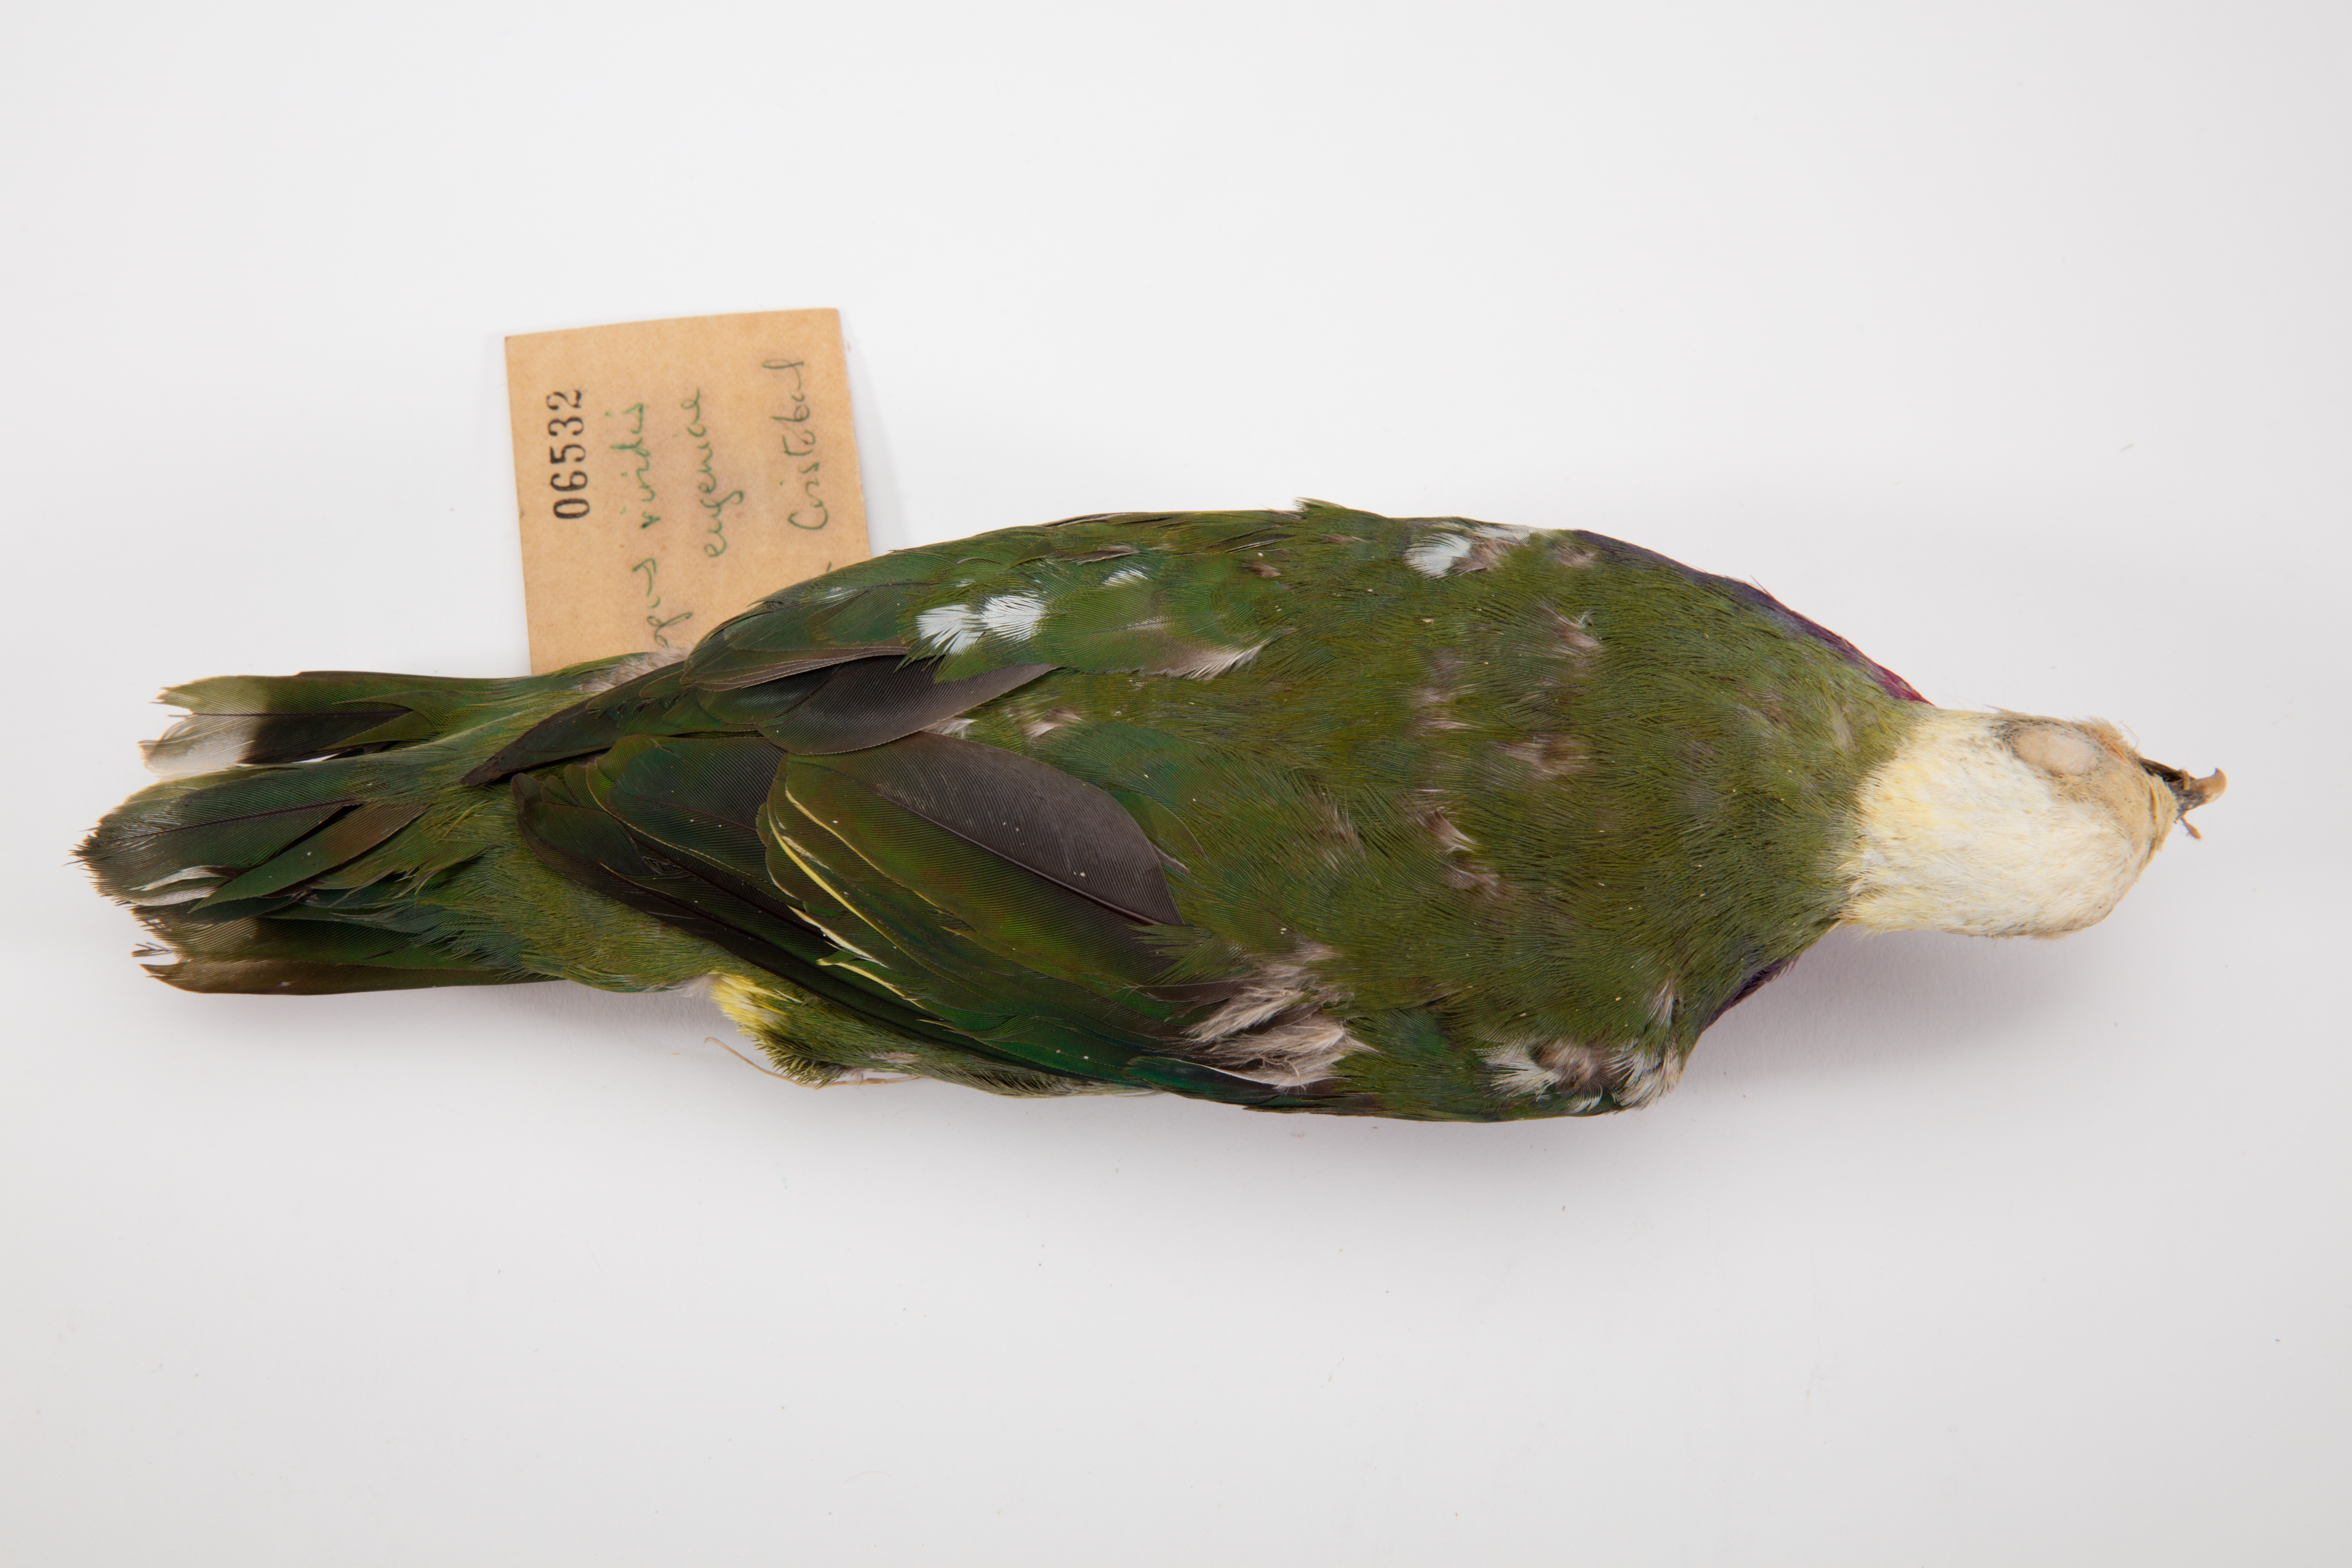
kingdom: Animalia
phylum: Chordata
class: Aves
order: Columbiformes
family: Columbidae
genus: Ptilinopus
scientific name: Ptilinopus viridis
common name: Claret-breasted fruit dove
